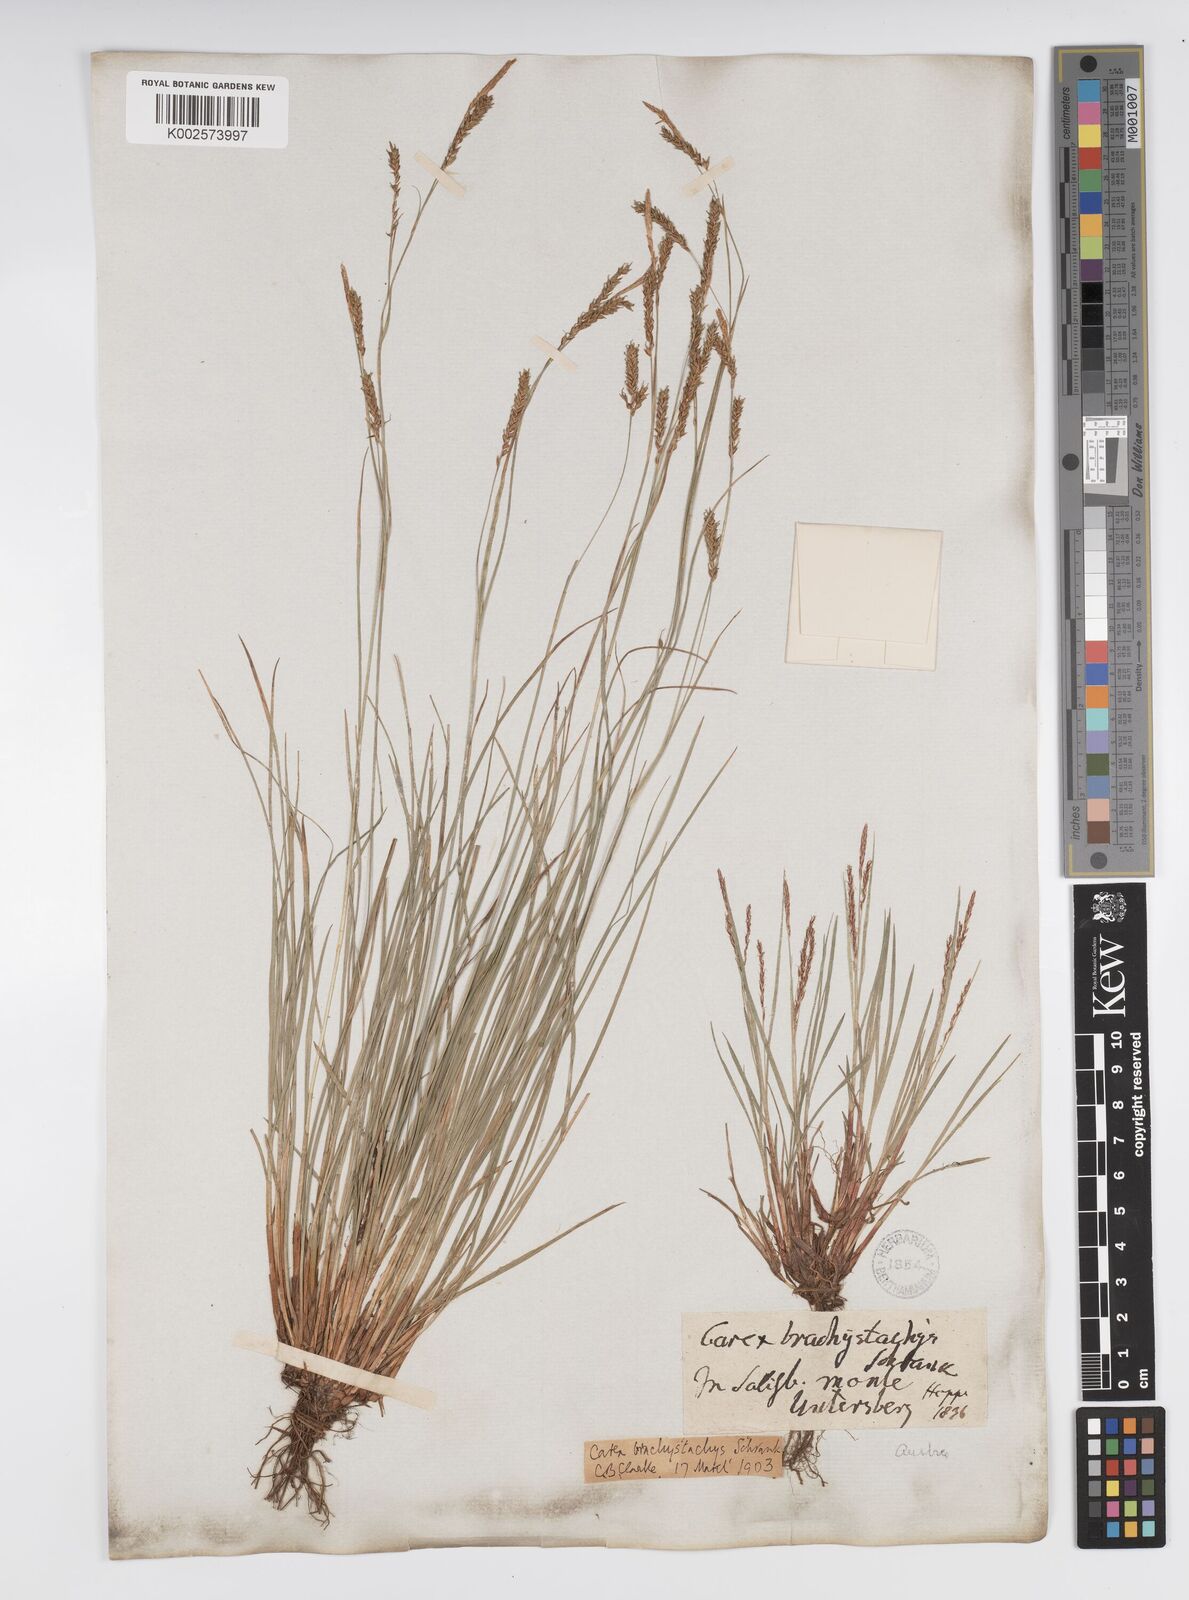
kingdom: Plantae
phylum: Tracheophyta
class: Liliopsida
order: Poales
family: Cyperaceae
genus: Carex
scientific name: Carex brachystachys
